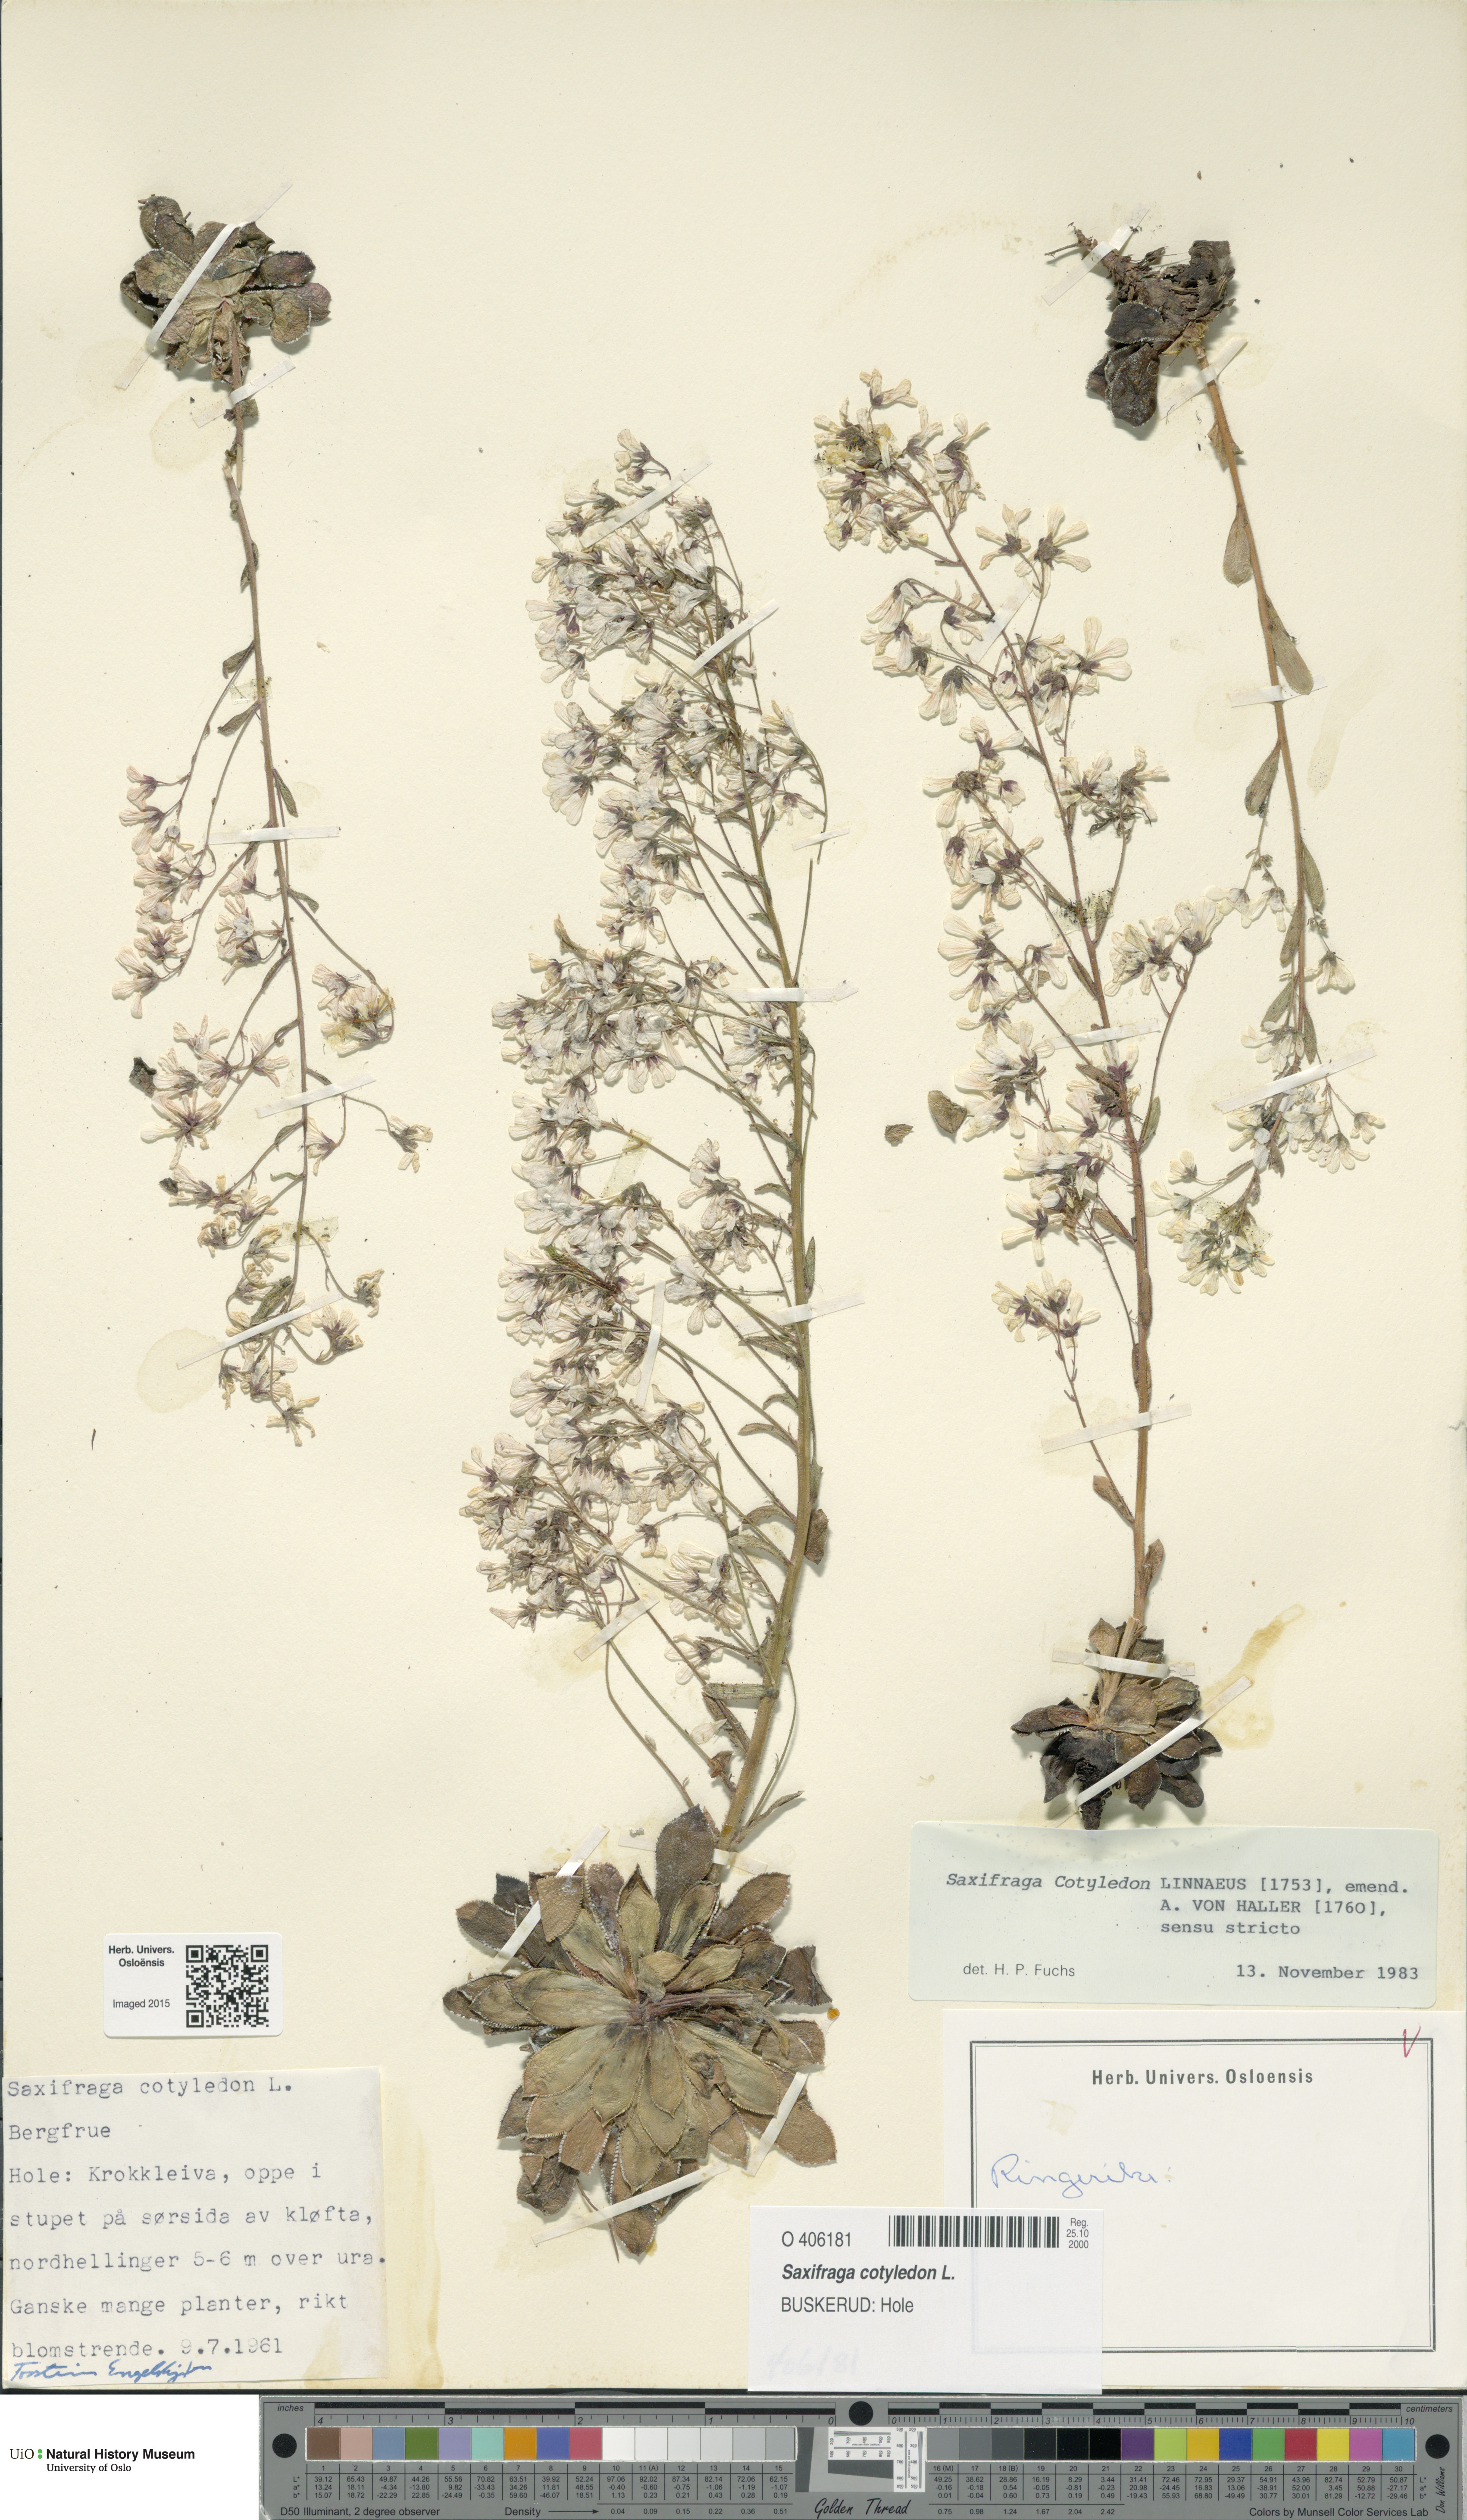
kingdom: Plantae
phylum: Tracheophyta
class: Magnoliopsida
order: Saxifragales
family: Saxifragaceae
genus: Saxifraga
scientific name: Saxifraga cotyledon
